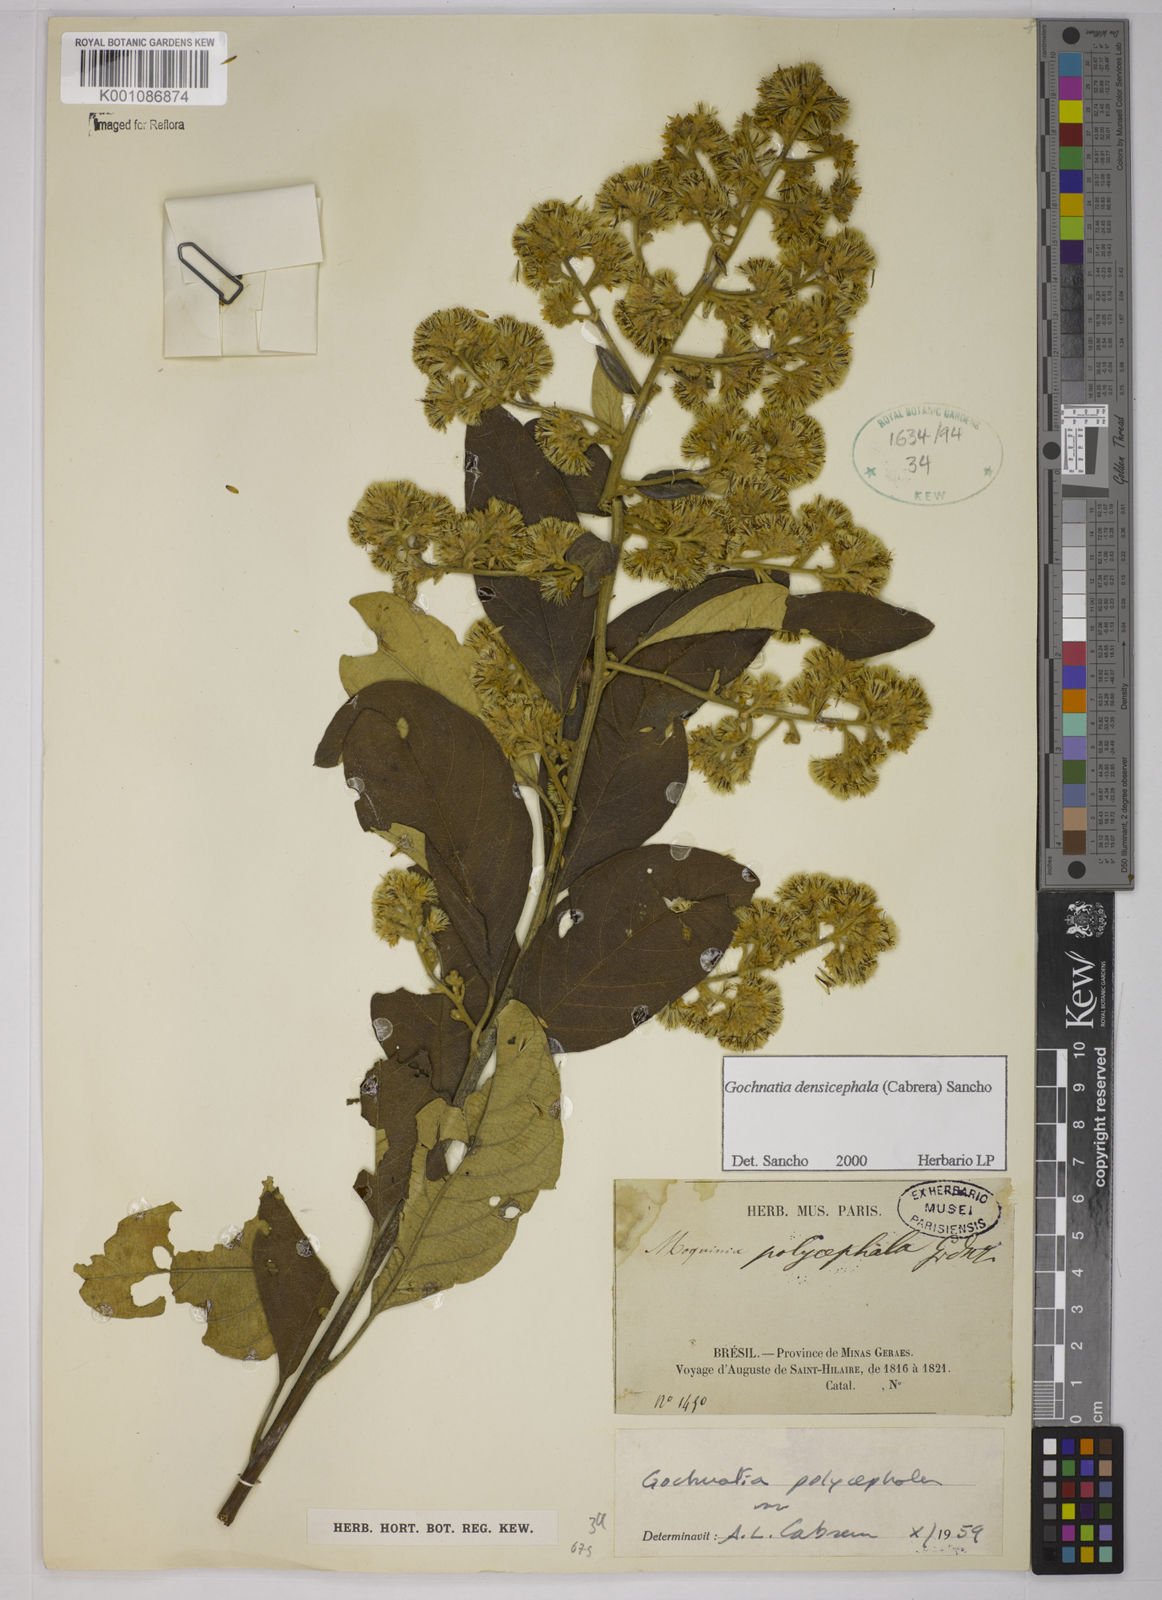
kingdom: Plantae
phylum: Tracheophyta
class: Magnoliopsida
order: Asterales
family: Asteraceae
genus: Moquiniastrum
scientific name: Moquiniastrum densicephalum
